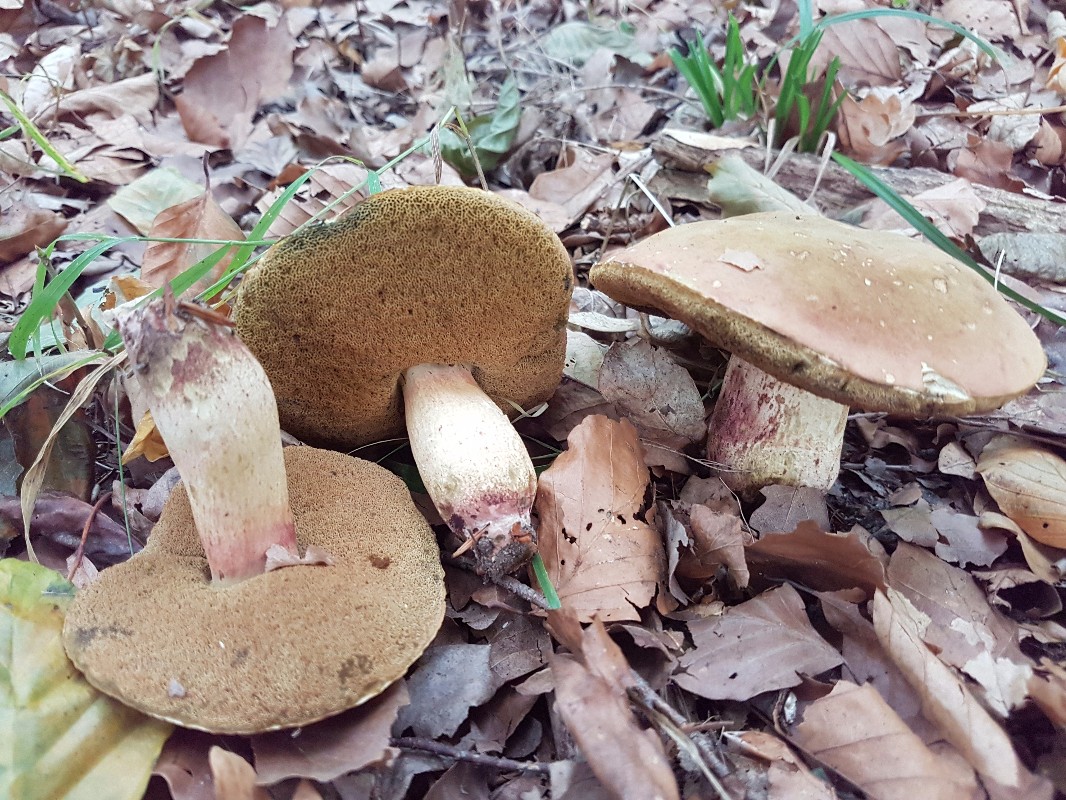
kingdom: Fungi
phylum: Basidiomycota
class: Agaricomycetes
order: Boletales
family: Boletaceae
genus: Suillellus
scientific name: Suillellus queletii
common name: glatstokket indigorørhat
